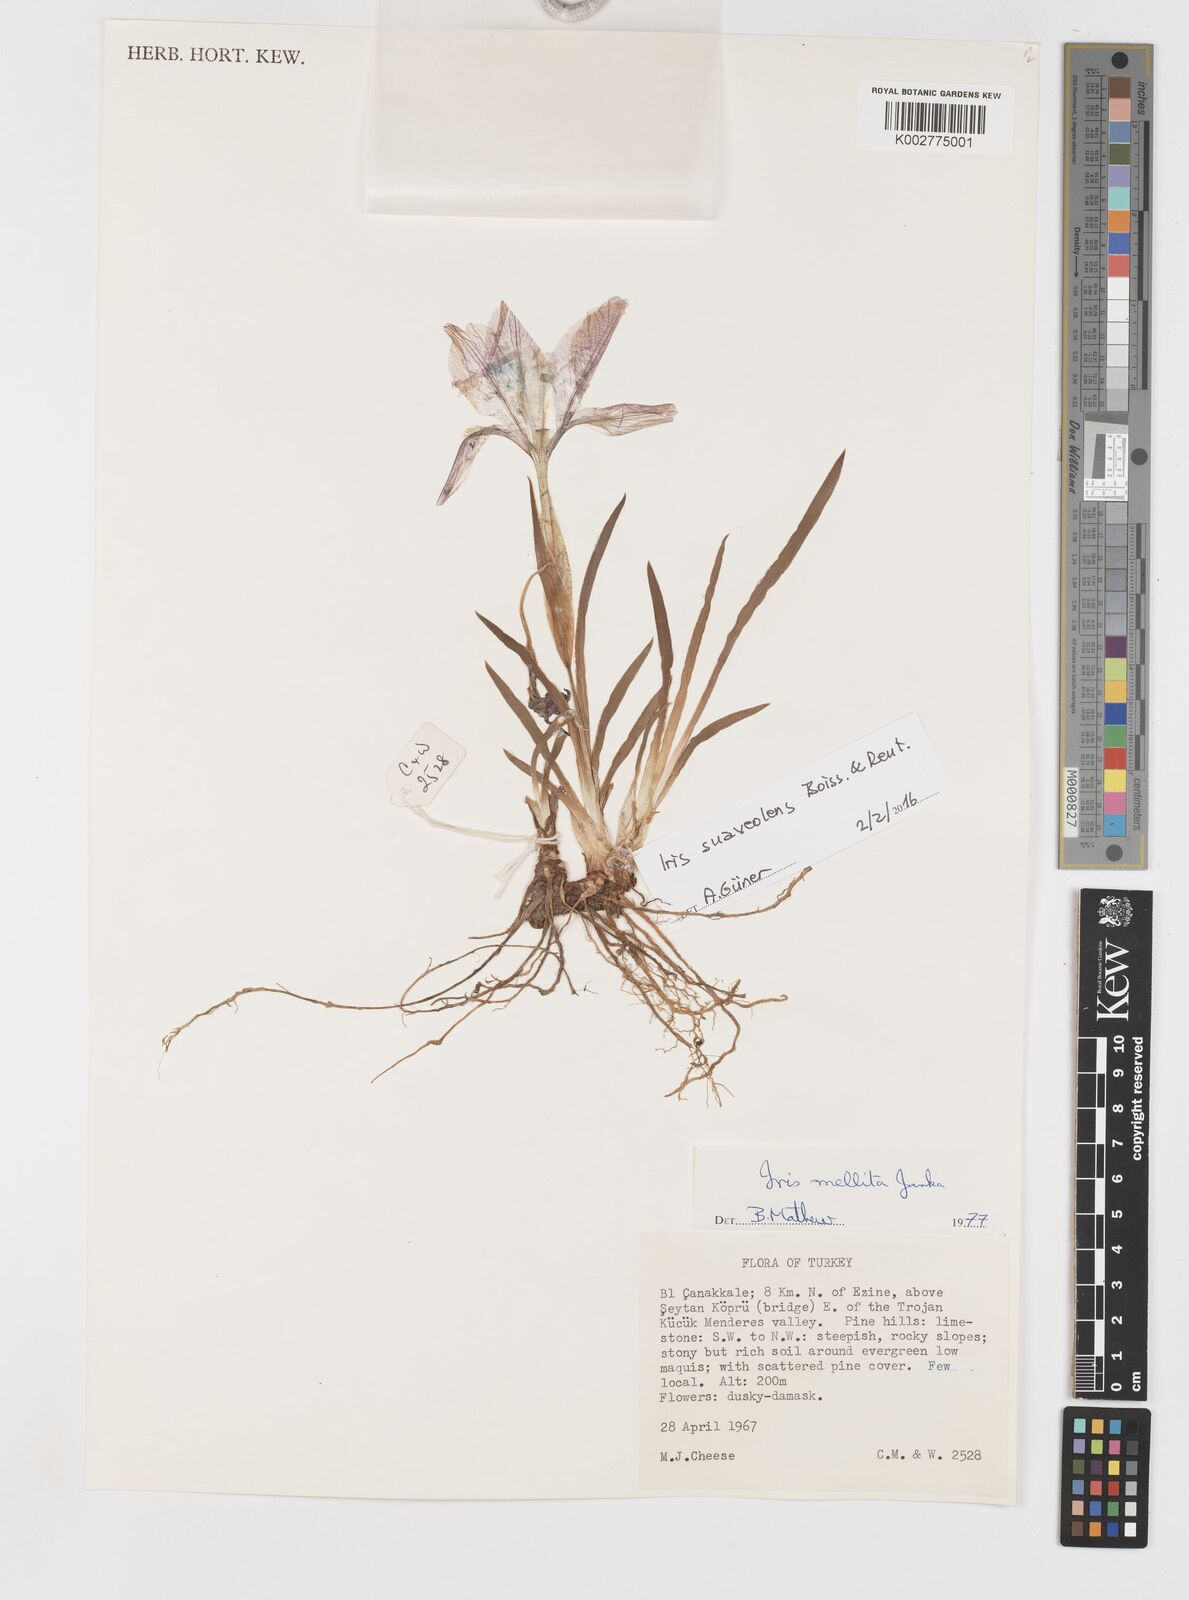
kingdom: Plantae
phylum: Tracheophyta
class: Liliopsida
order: Asparagales
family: Iridaceae
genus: Iris
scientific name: Iris suaveolens
